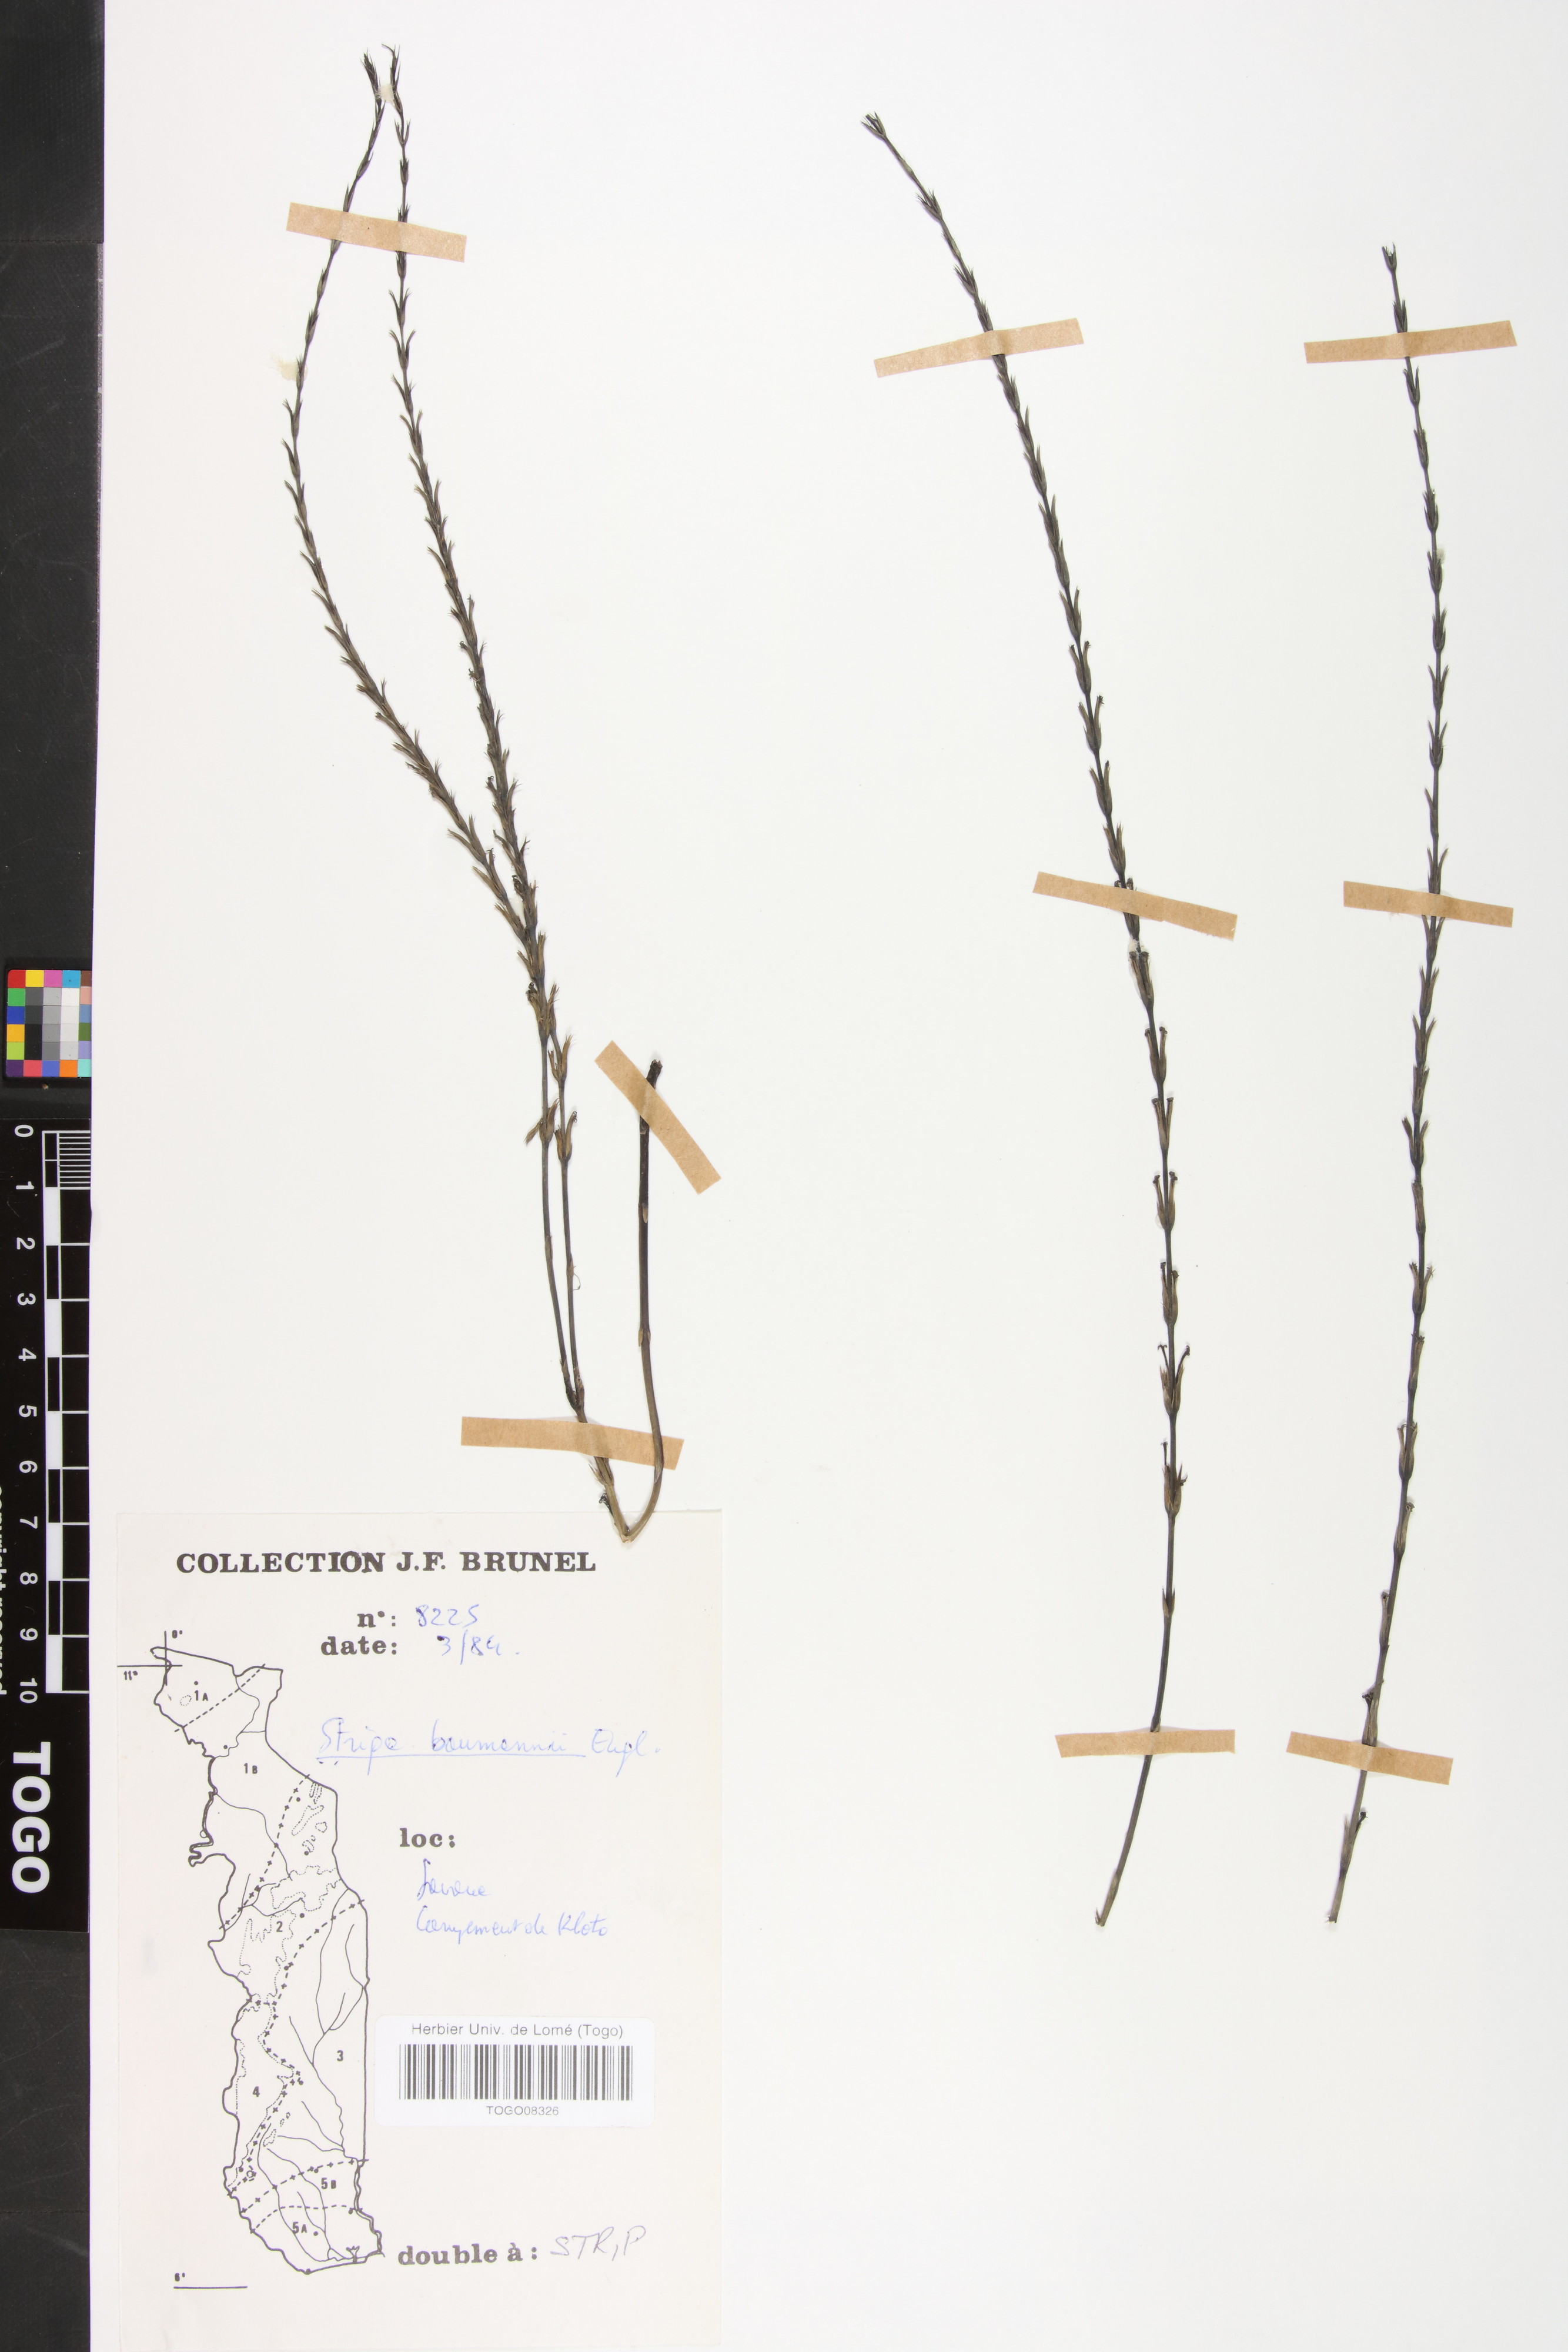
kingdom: Plantae
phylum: Tracheophyta
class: Magnoliopsida
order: Lamiales
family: Orobanchaceae
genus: Striga
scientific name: Striga baumannii
